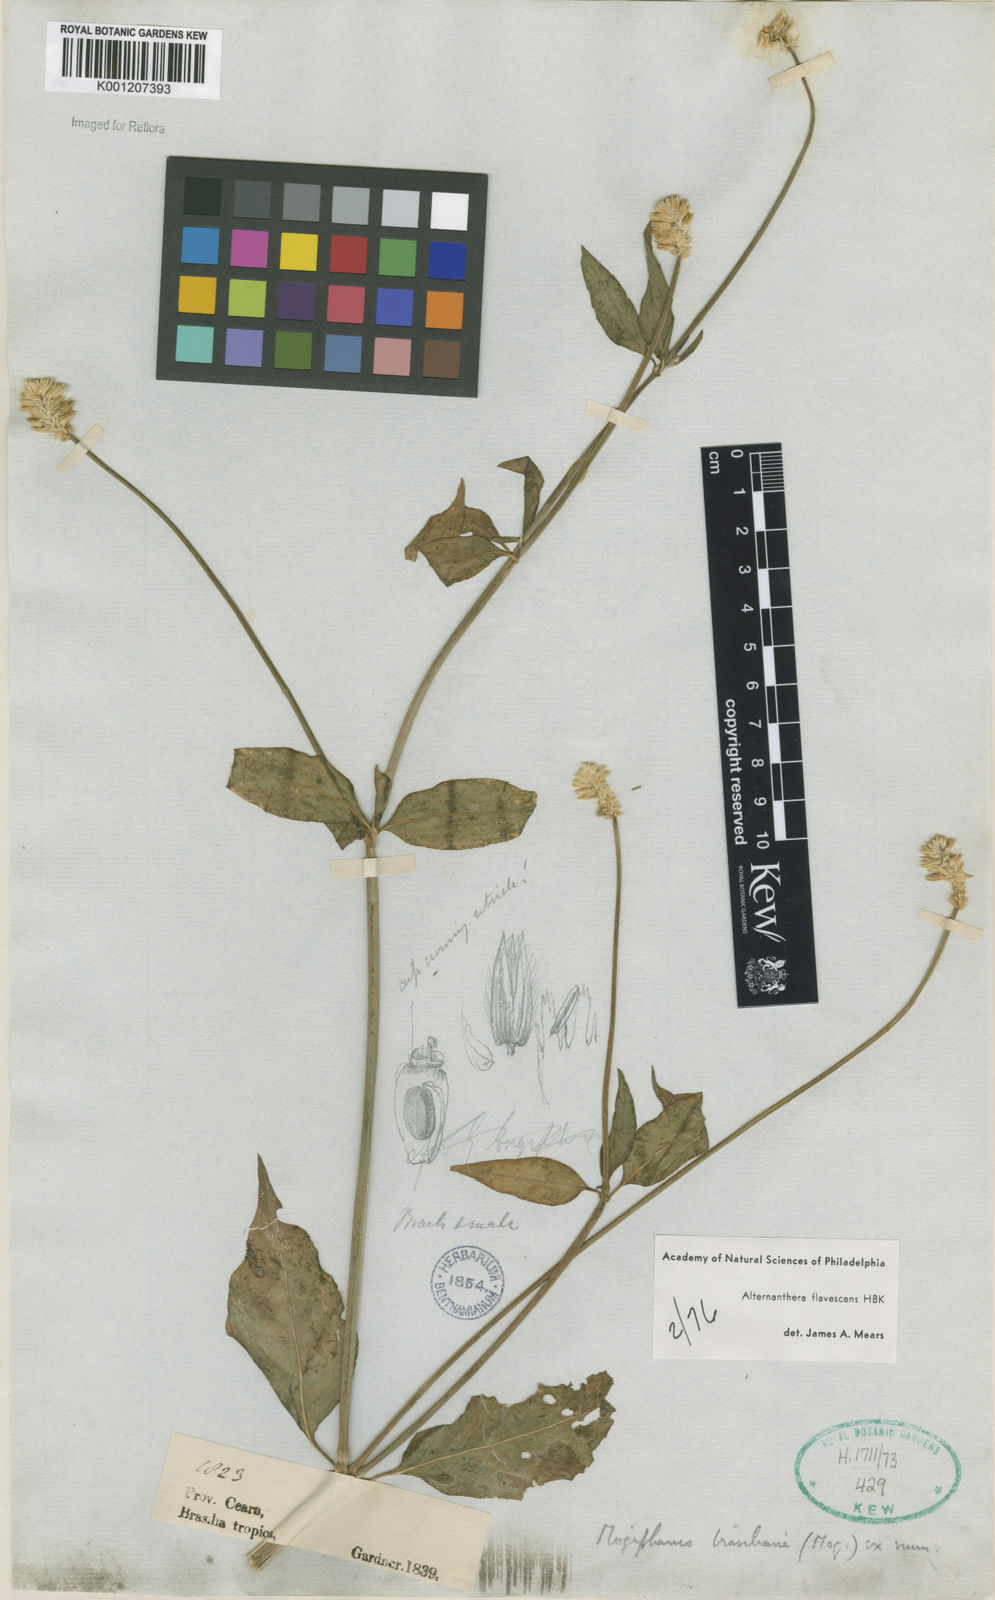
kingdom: Plantae
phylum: Tracheophyta
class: Magnoliopsida
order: Caryophyllales
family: Amaranthaceae
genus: Alternanthera
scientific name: Alternanthera flavescens
